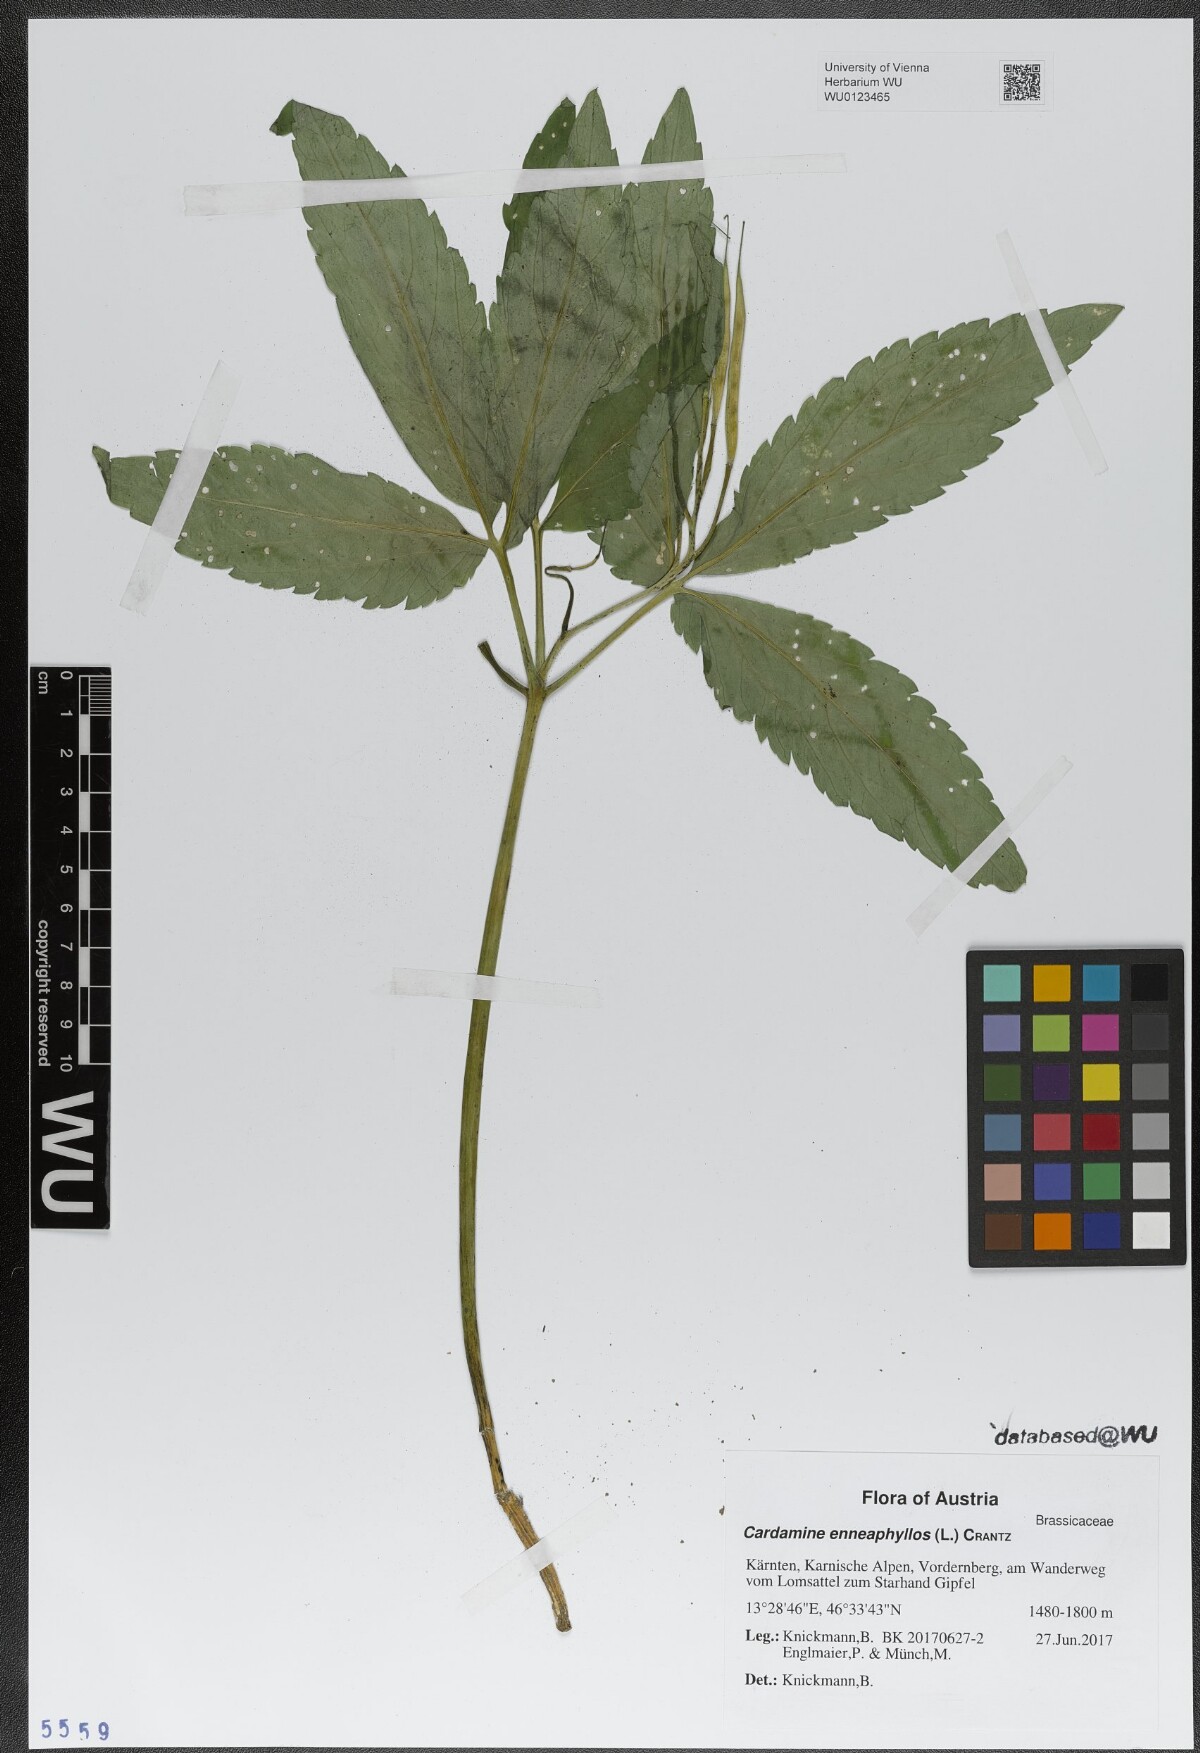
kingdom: Plantae
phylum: Tracheophyta
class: Magnoliopsida
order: Brassicales
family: Brassicaceae
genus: Cardamine
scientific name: Cardamine enneaphyllos
